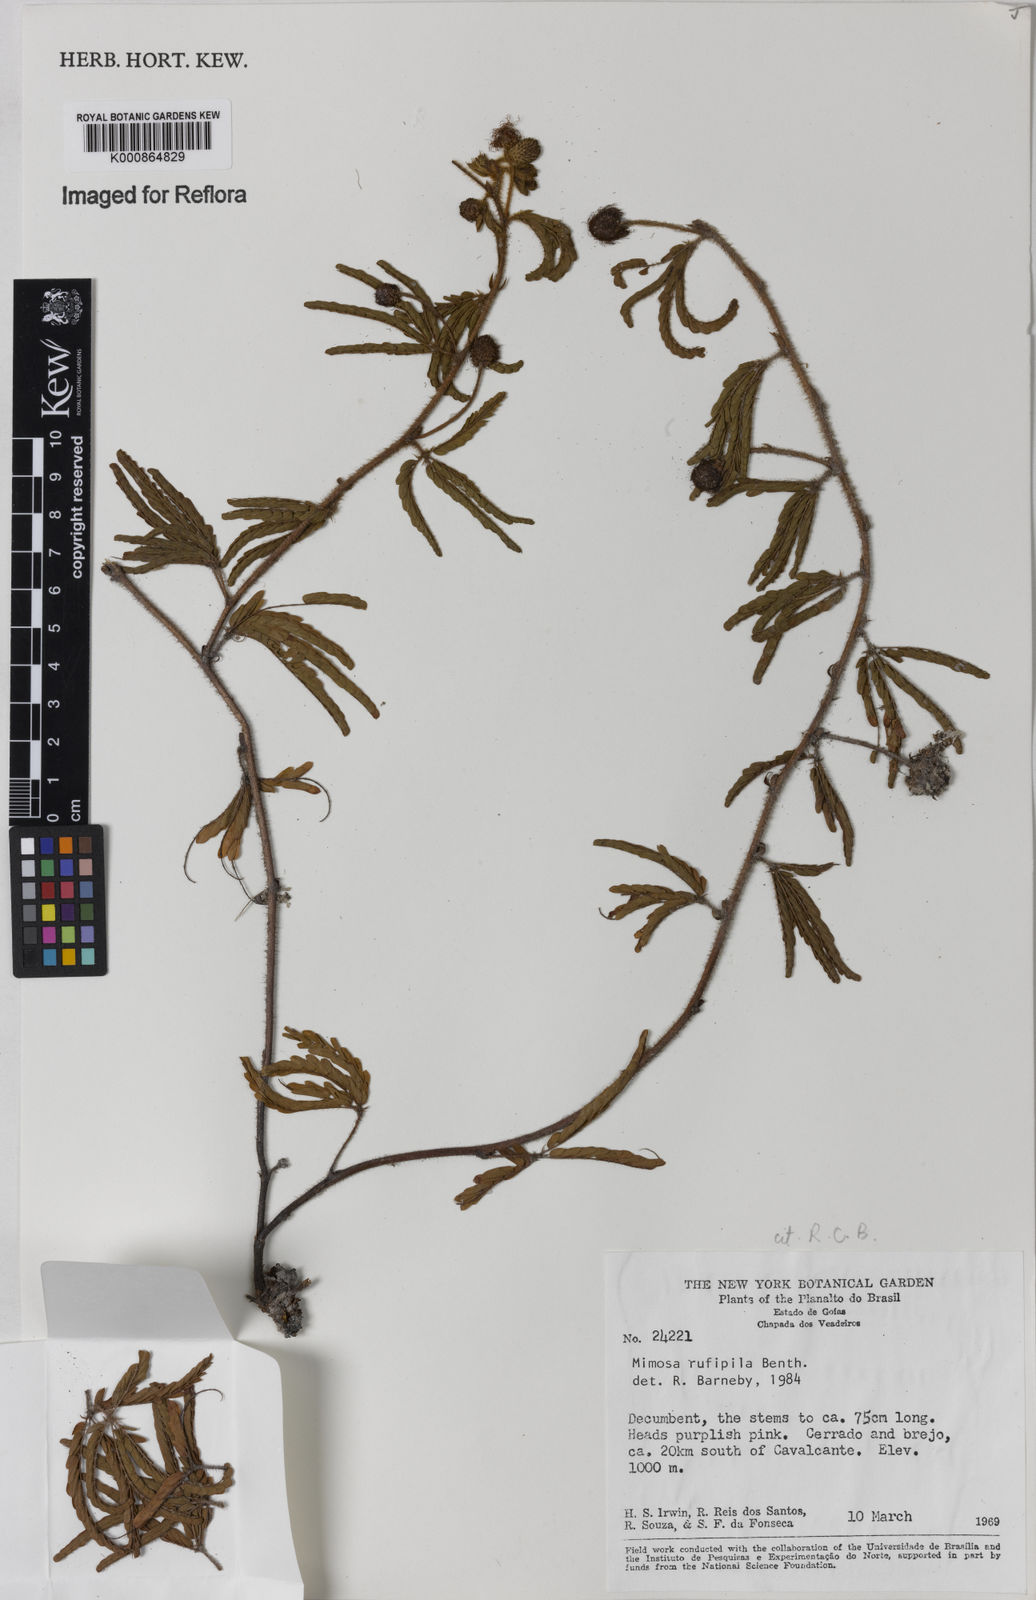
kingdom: Plantae
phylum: Tracheophyta
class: Magnoliopsida
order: Fabales
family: Fabaceae
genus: Mimosa
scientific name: Mimosa rufipila
